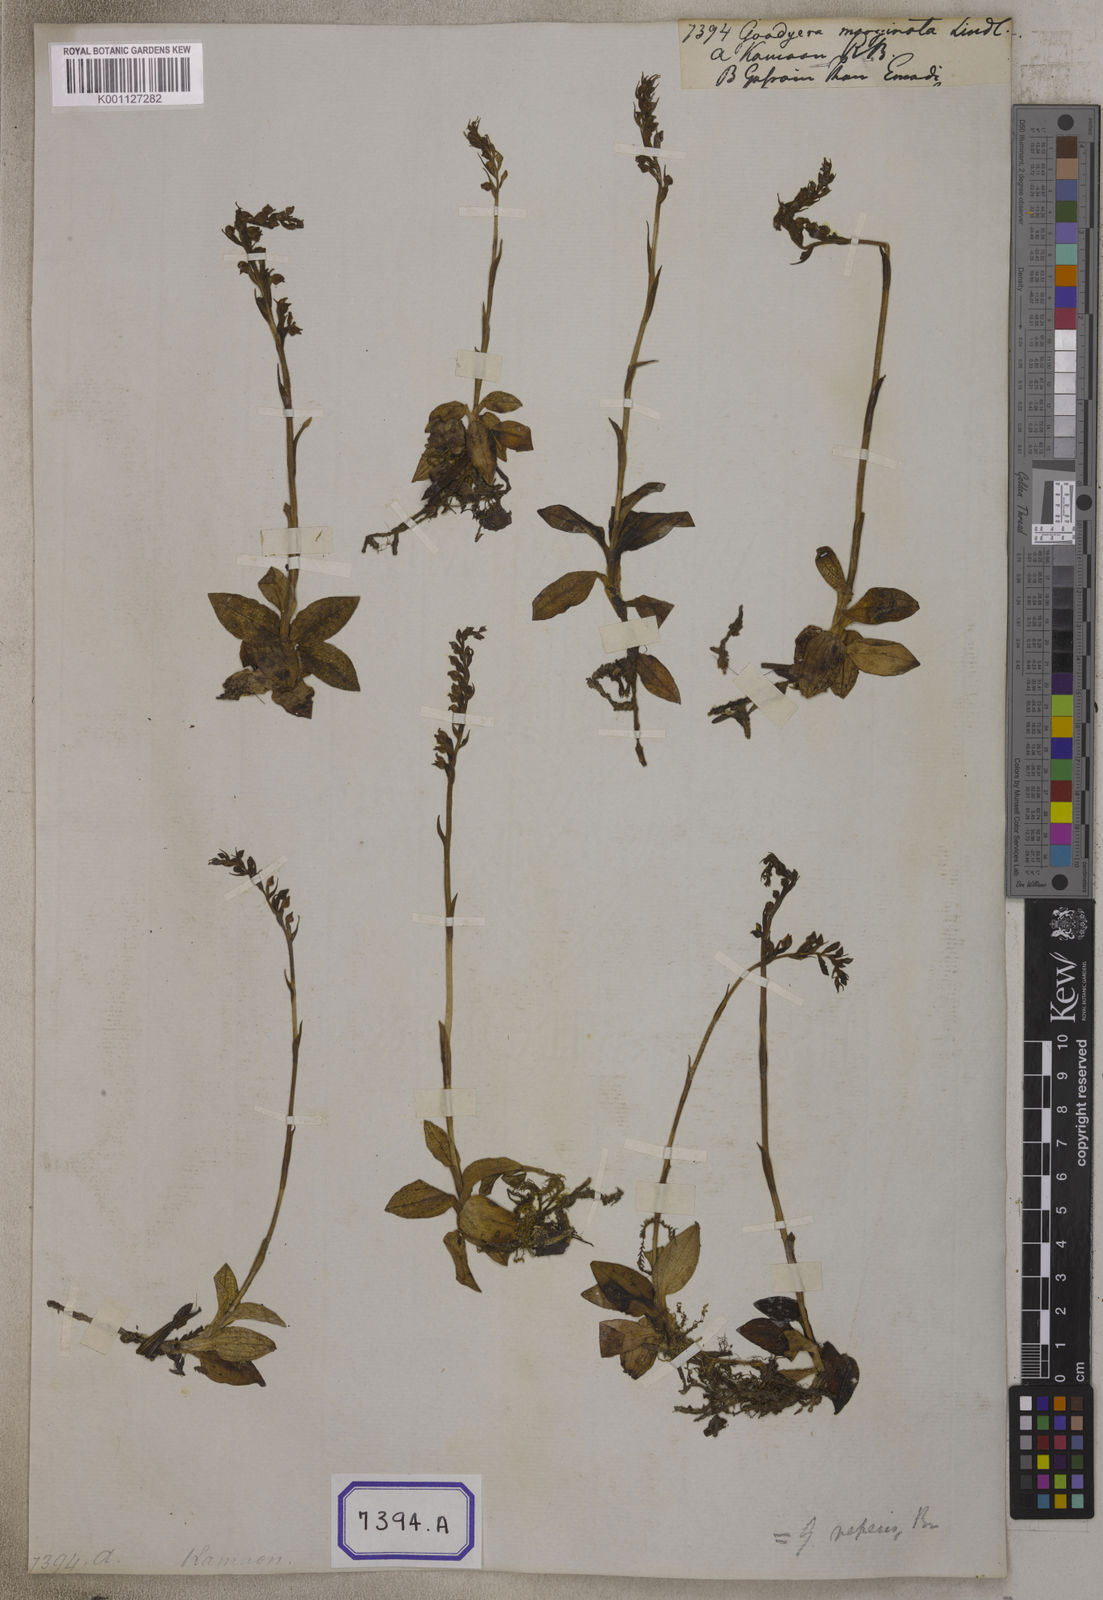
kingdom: Plantae
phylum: Tracheophyta
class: Liliopsida
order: Asparagales
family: Orchidaceae
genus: Goodyera
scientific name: Goodyera marginata
